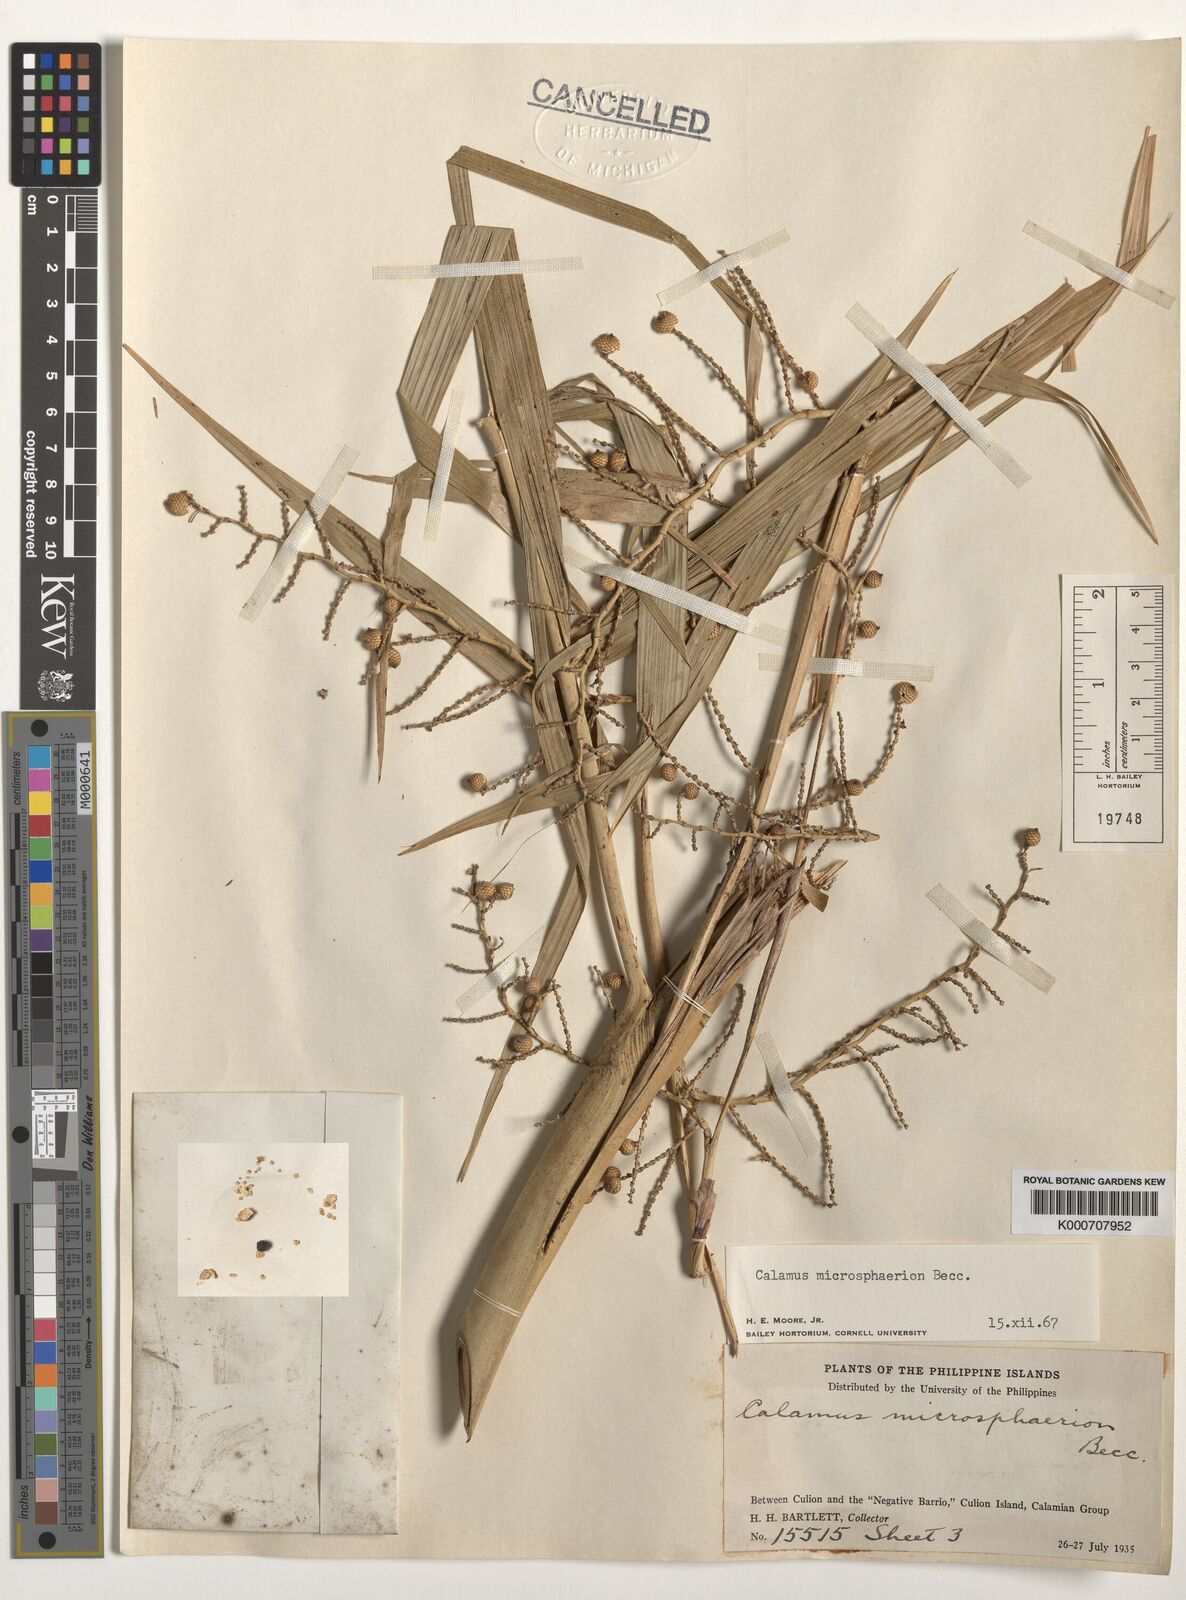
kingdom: Plantae
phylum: Tracheophyta
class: Liliopsida
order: Arecales
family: Arecaceae
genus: Calamus
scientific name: Calamus microsphaerion
